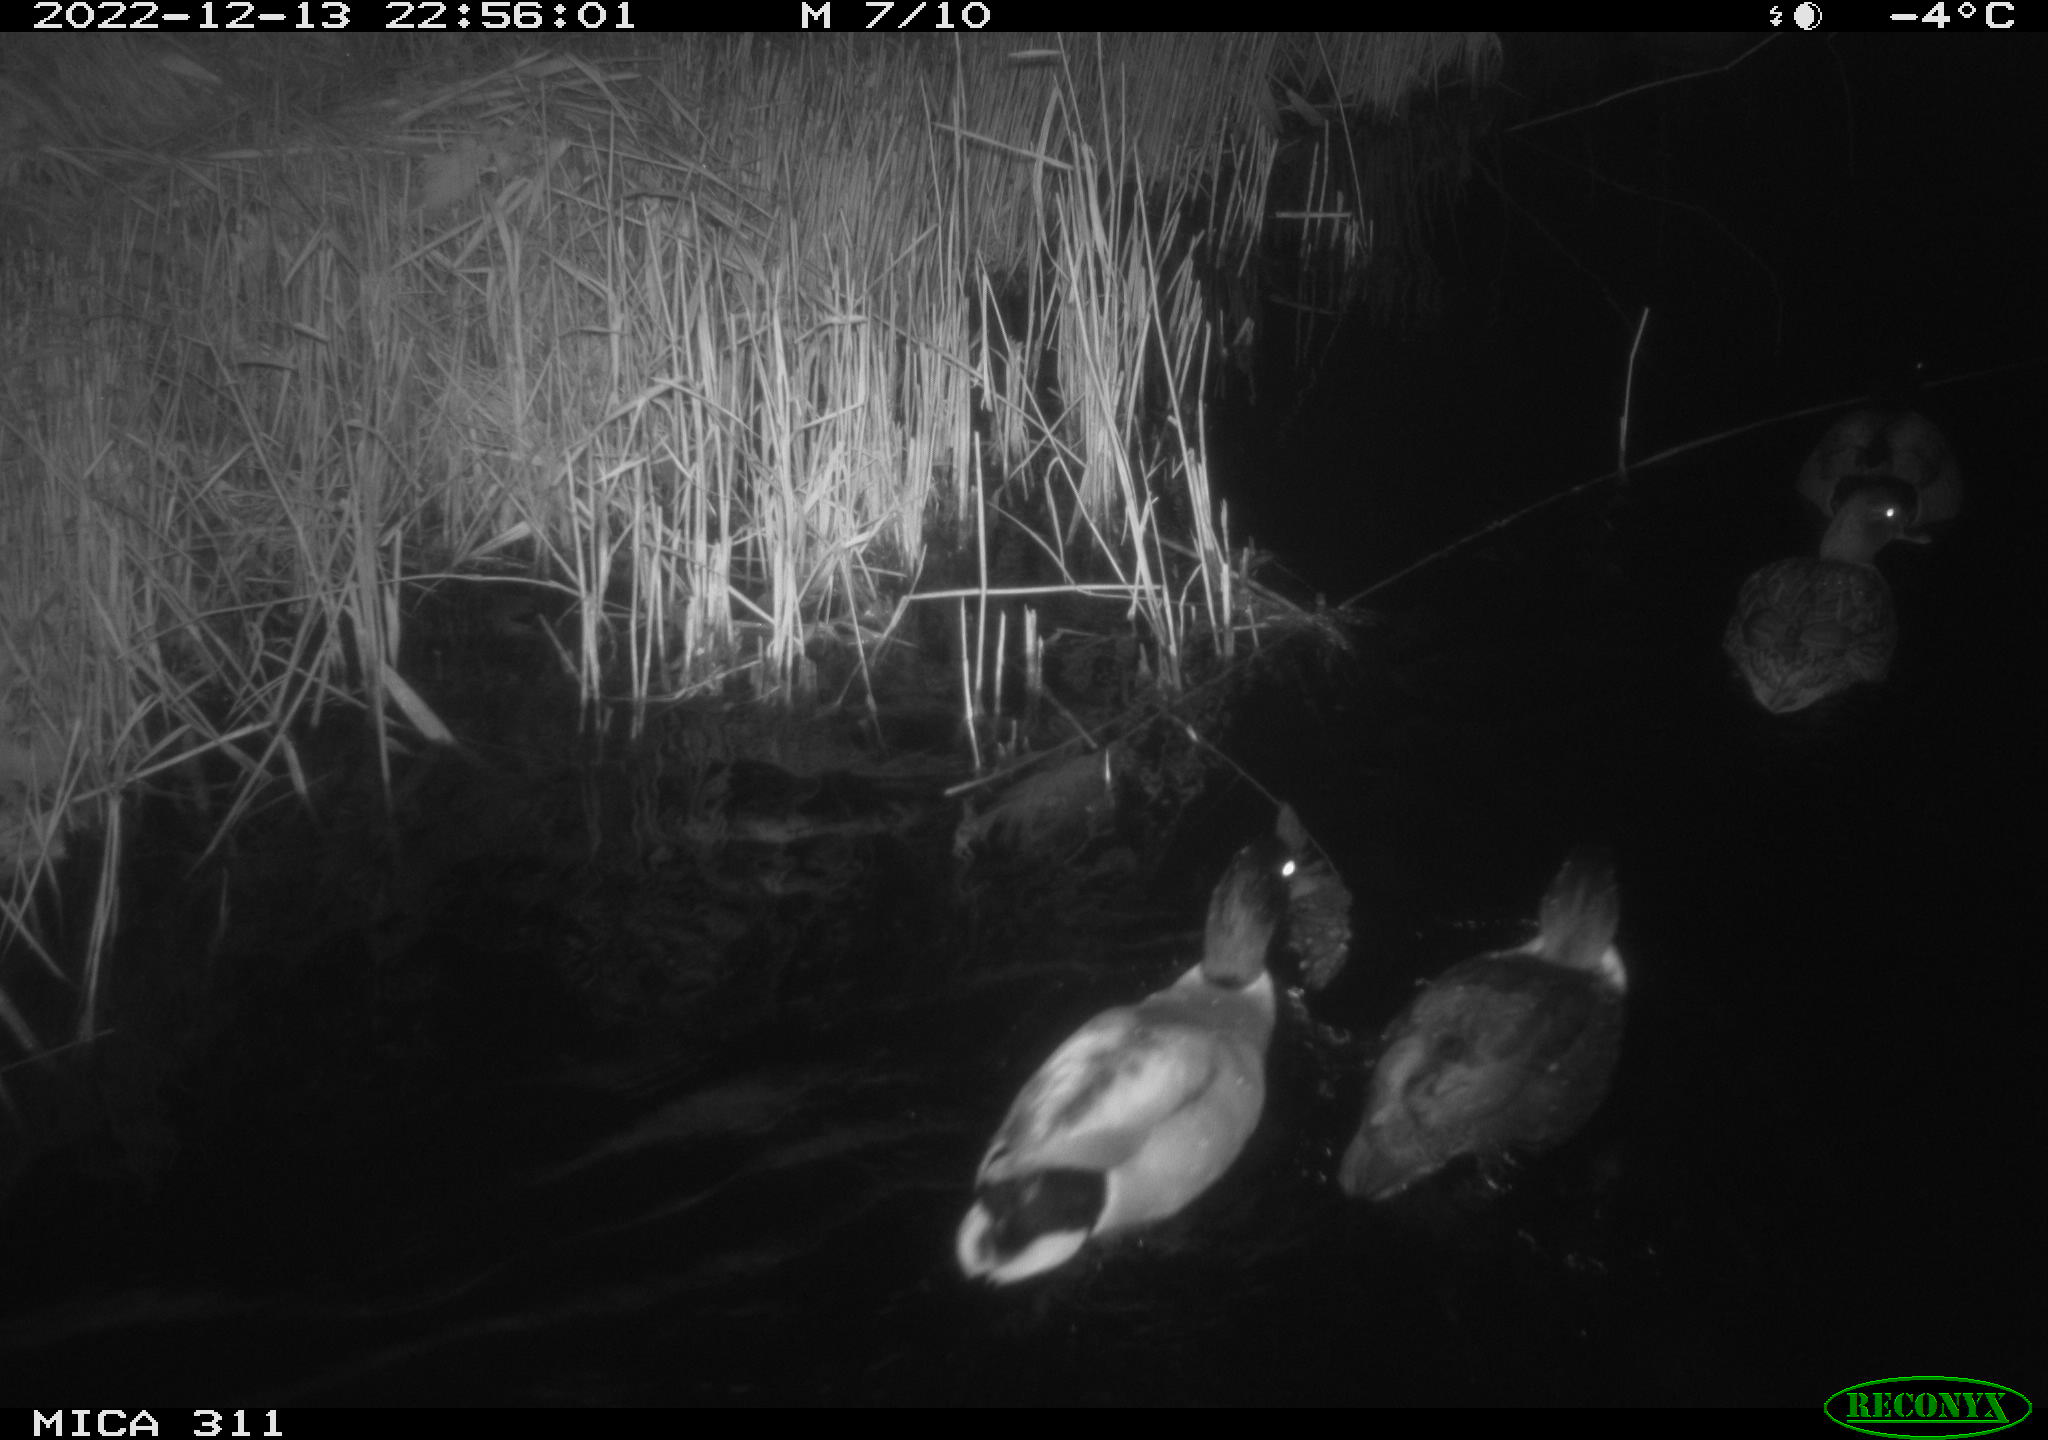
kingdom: Animalia
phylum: Chordata
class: Aves
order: Anseriformes
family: Anatidae
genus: Anas
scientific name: Anas
